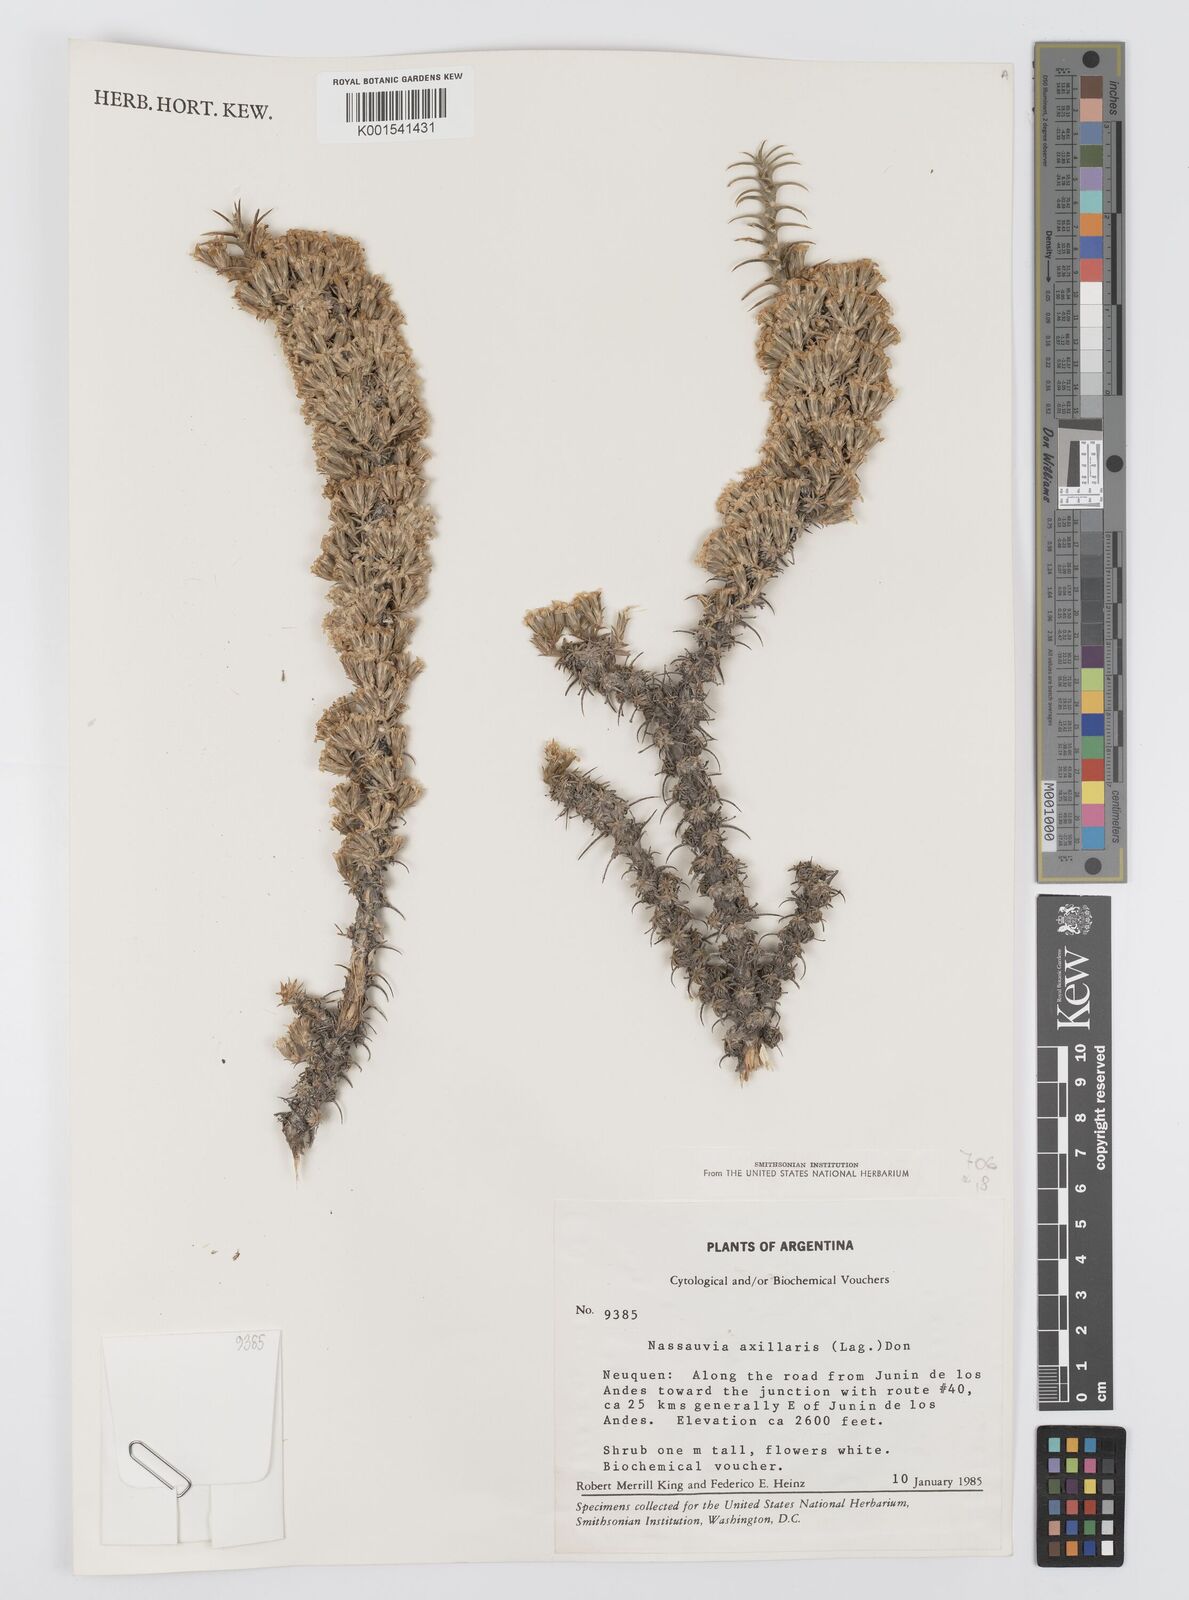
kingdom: Plantae
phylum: Tracheophyta
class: Magnoliopsida
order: Asterales
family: Asteraceae
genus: Nassauvia
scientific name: Nassauvia axillaris
